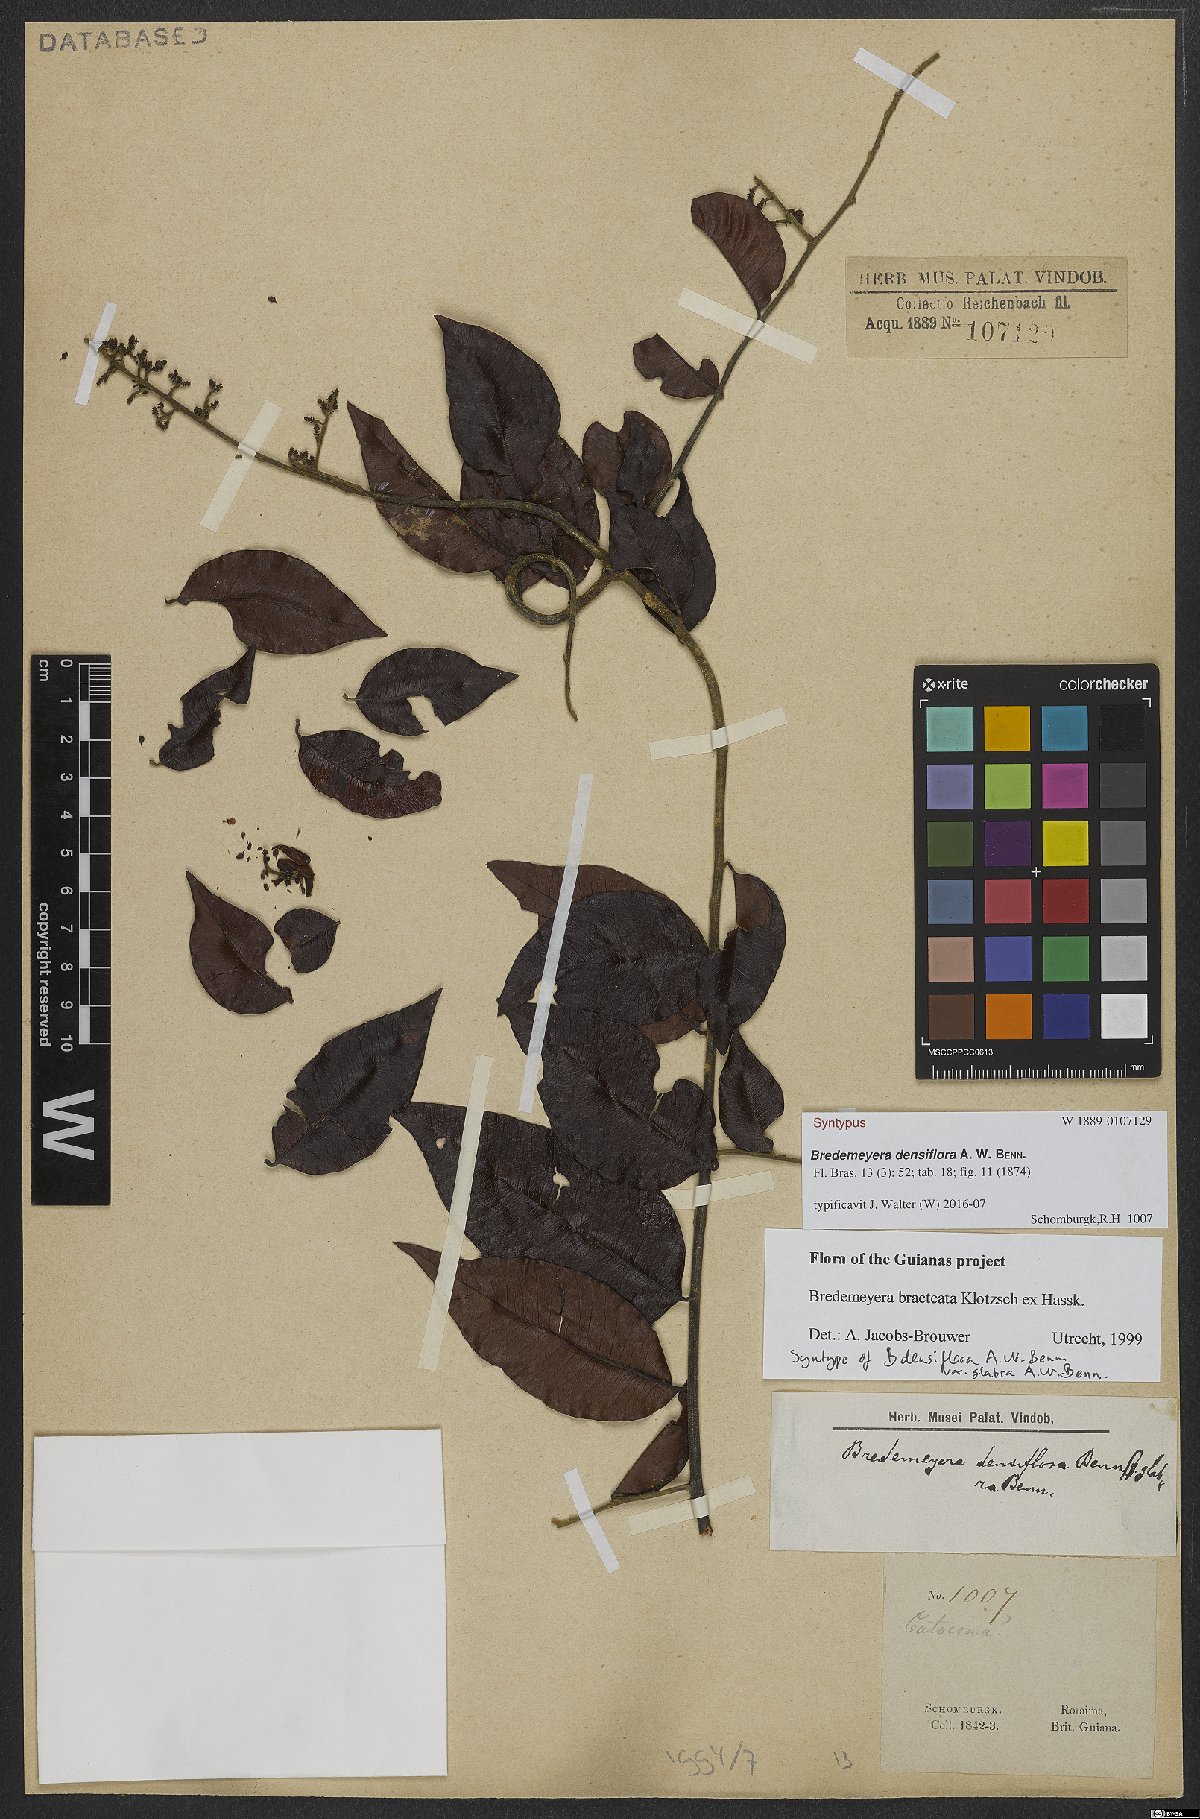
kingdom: Plantae
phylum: Tracheophyta
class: Magnoliopsida
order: Fabales
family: Polygalaceae
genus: Bredemeyera
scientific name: Bredemeyera bracteata
